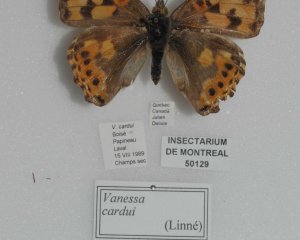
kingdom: Animalia
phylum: Arthropoda
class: Insecta
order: Lepidoptera
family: Nymphalidae
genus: Vanessa
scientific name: Vanessa cardui
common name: Painted Lady
